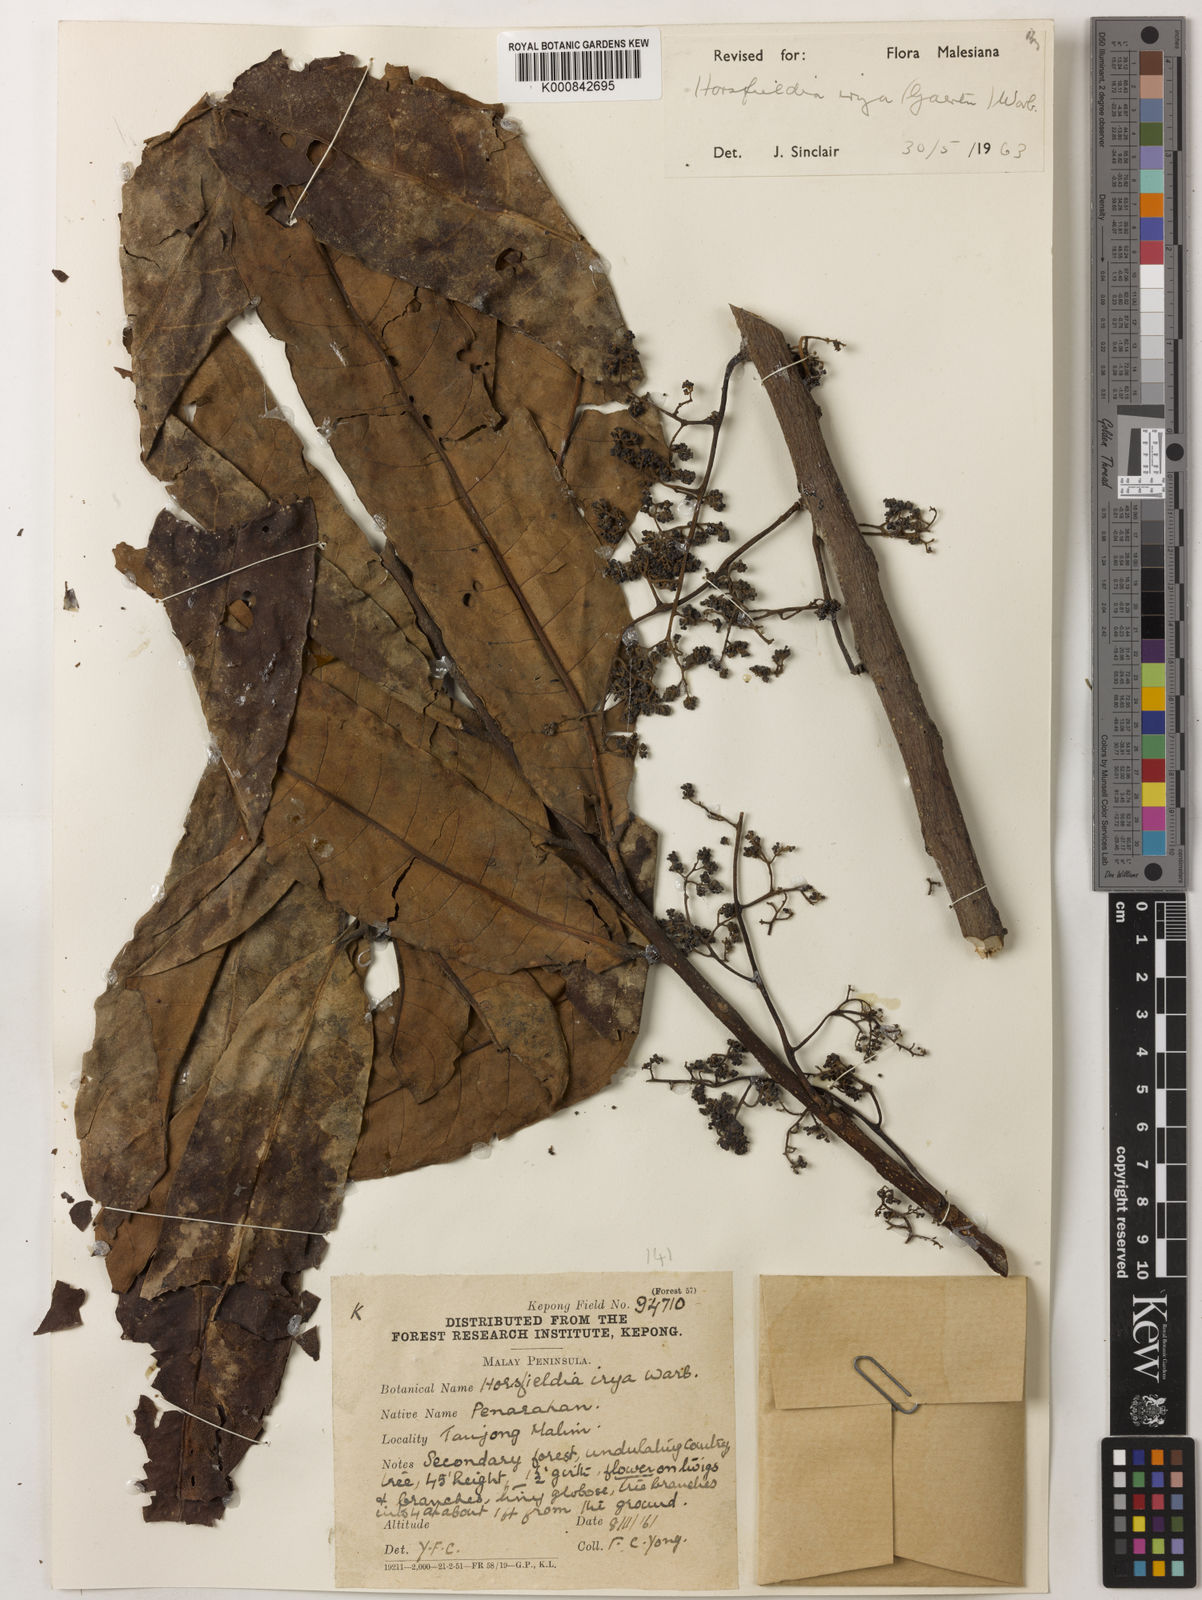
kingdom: Plantae
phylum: Tracheophyta
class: Magnoliopsida
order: Magnoliales
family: Myristicaceae
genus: Horsfieldia
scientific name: Horsfieldia irya
